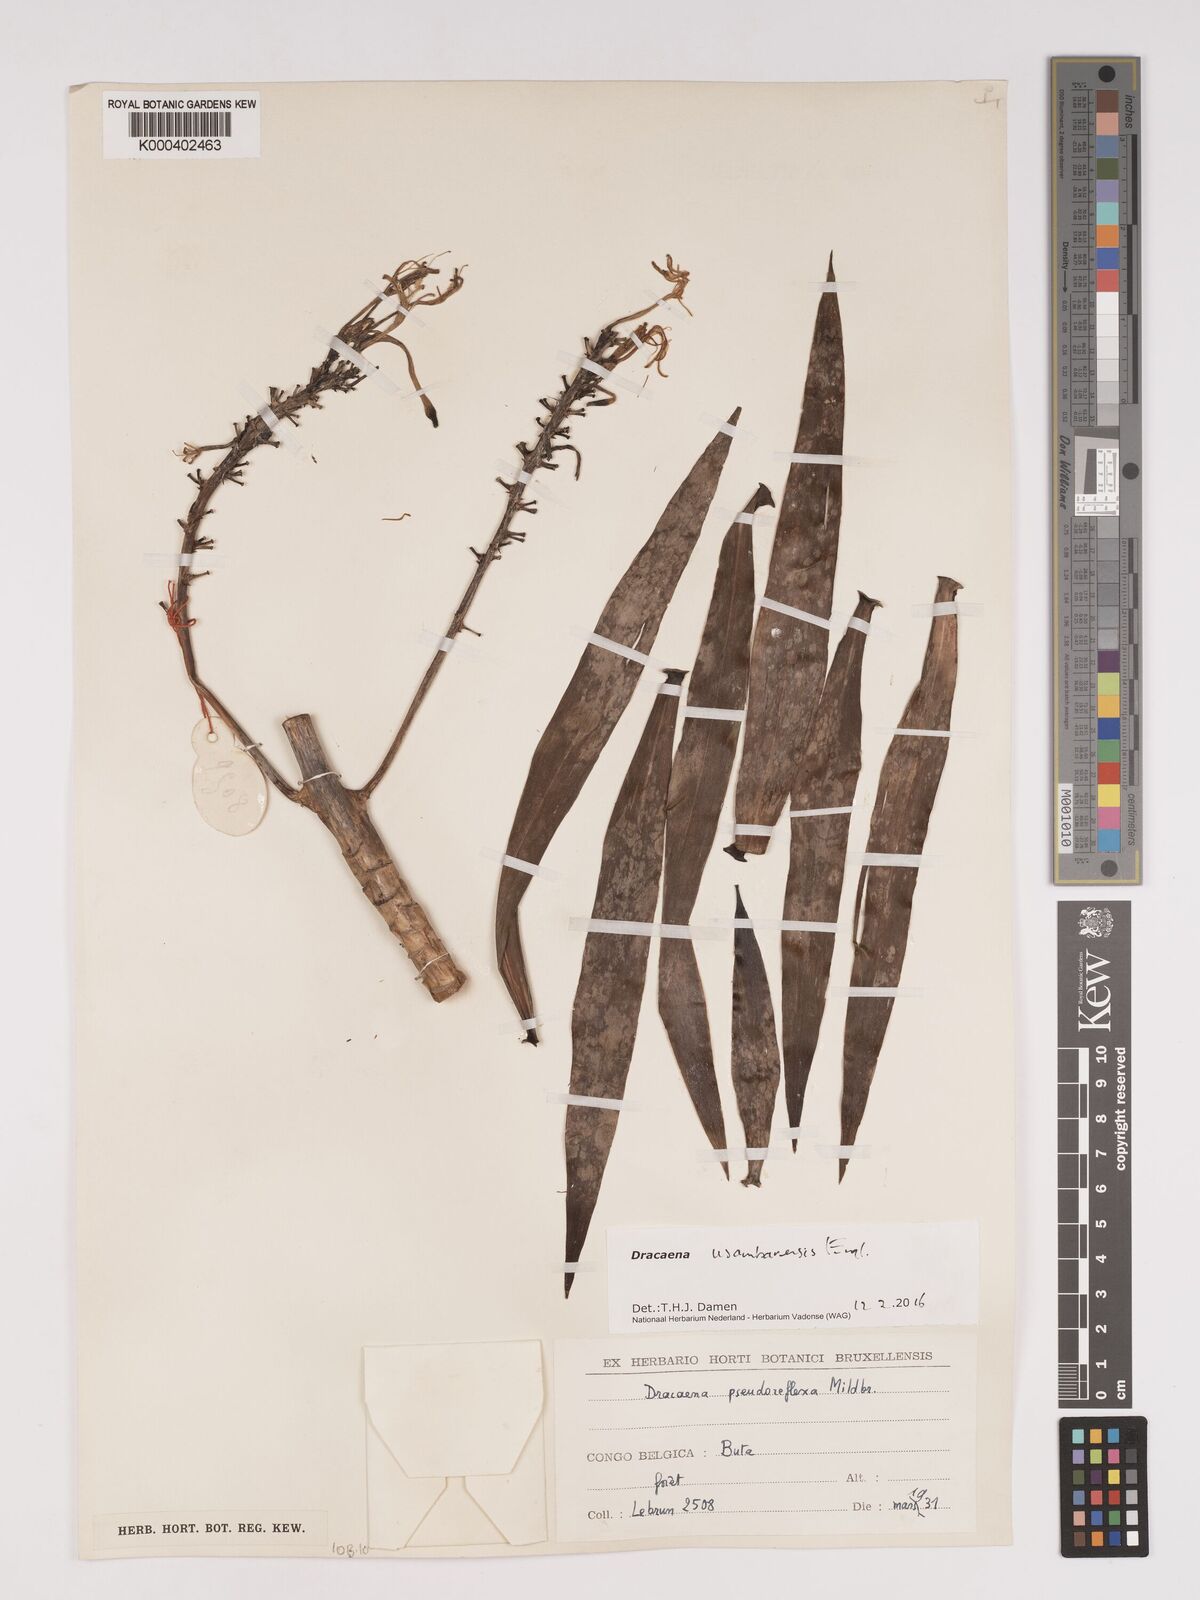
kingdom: Plantae
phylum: Tracheophyta
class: Liliopsida
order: Asparagales
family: Asparagaceae
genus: Dracaena
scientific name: Dracaena usambarensis
